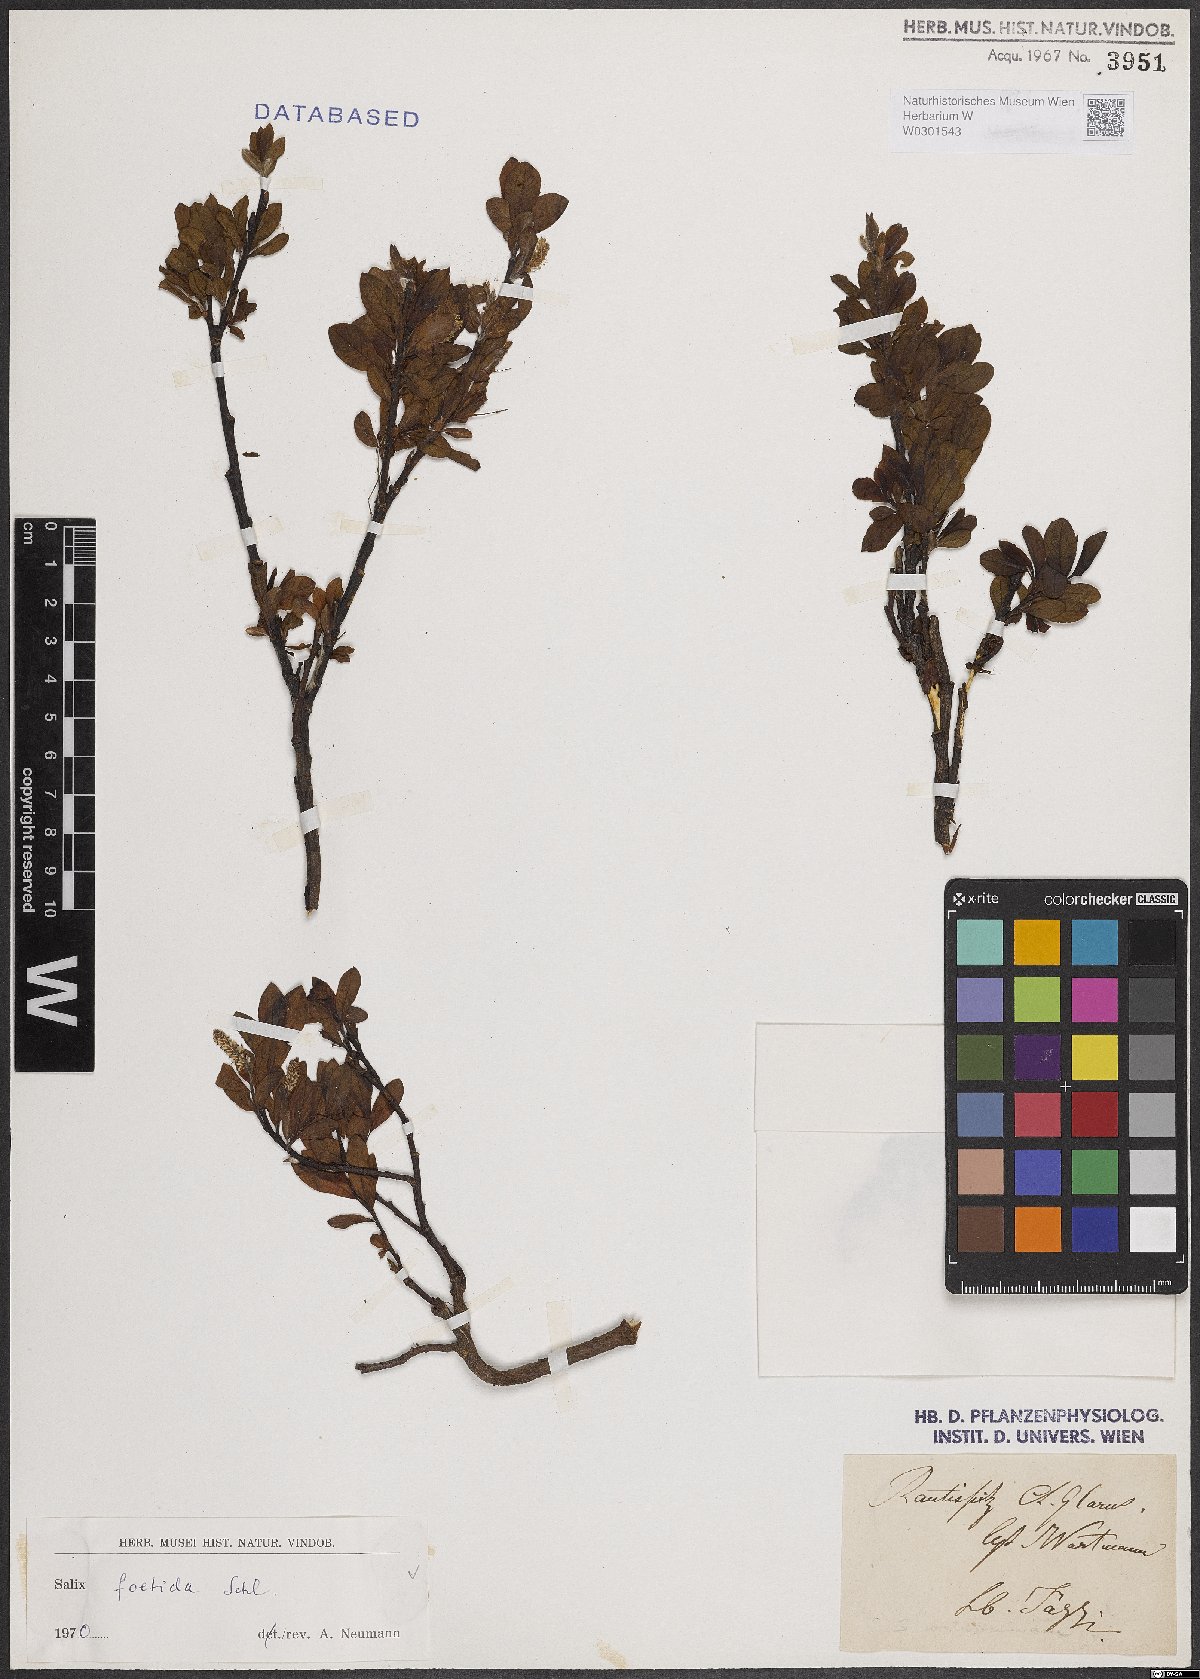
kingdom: Plantae
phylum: Tracheophyta
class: Magnoliopsida
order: Malpighiales
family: Salicaceae
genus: Salix
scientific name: Salix foetida
